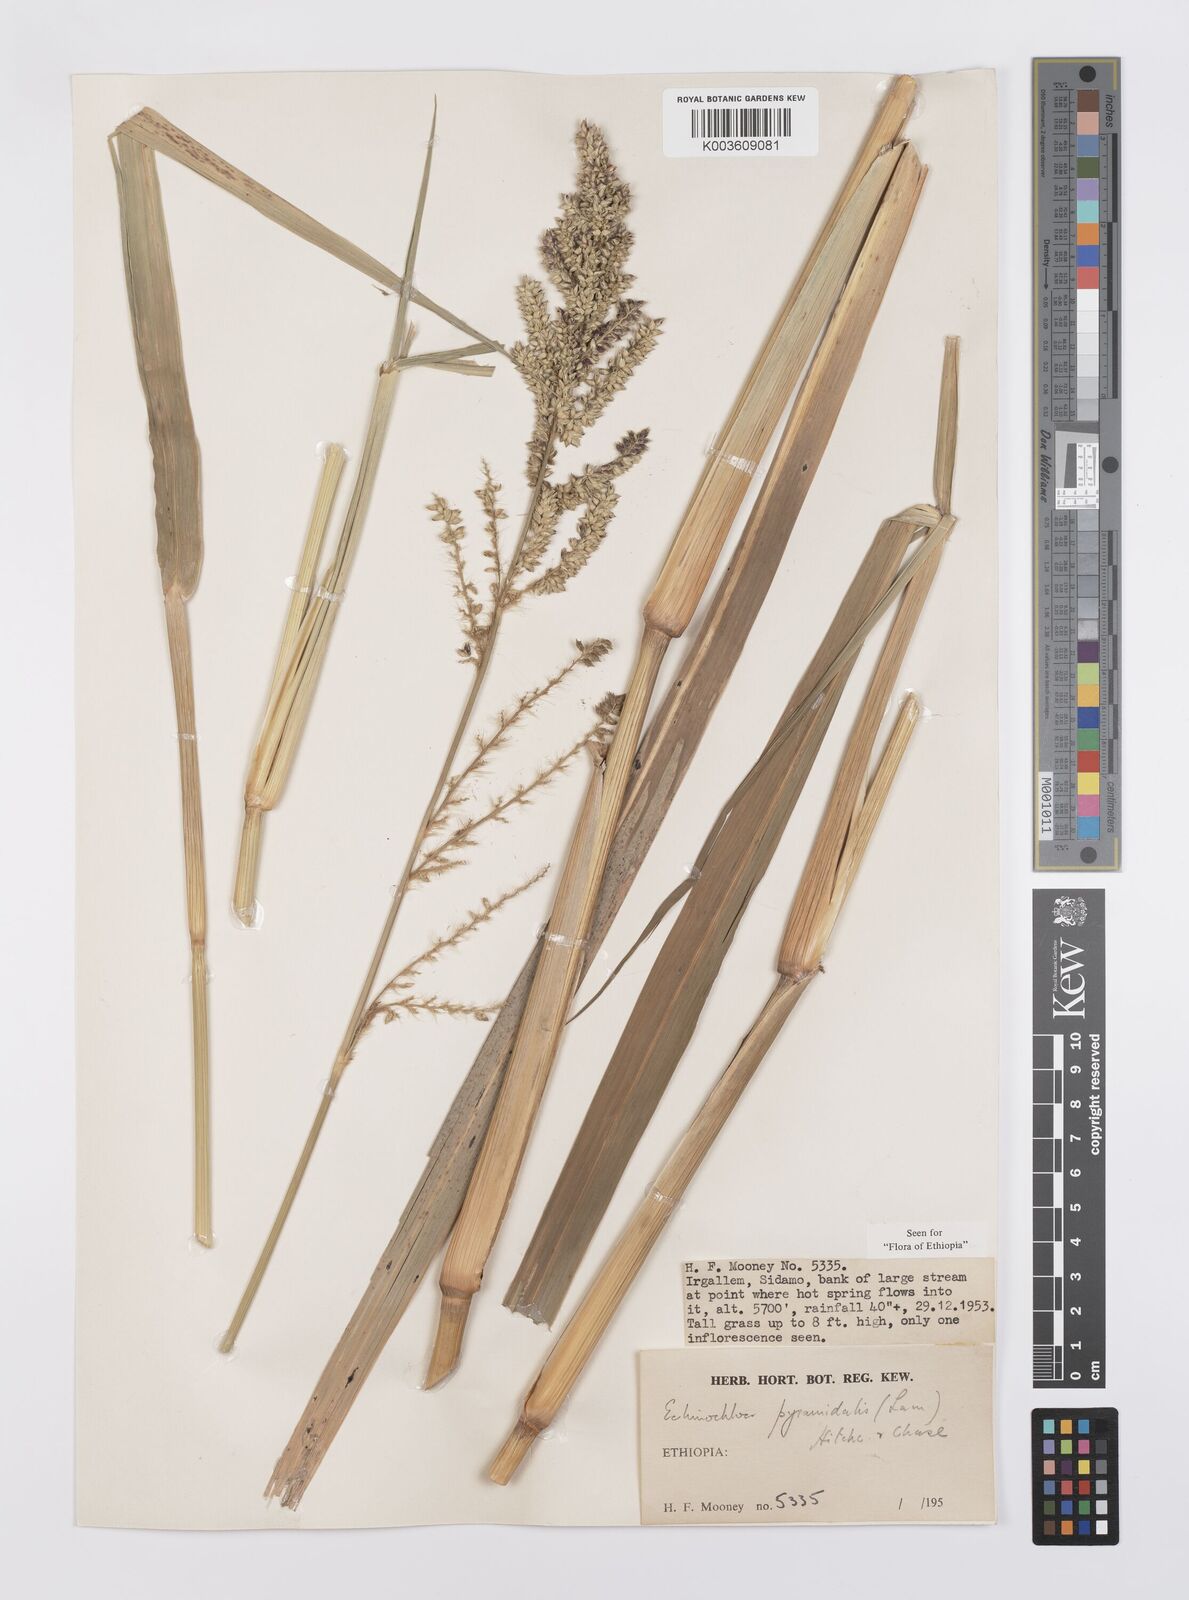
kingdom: Plantae
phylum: Tracheophyta
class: Liliopsida
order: Poales
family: Poaceae
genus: Echinochloa
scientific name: Echinochloa pyramidalis
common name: Antelope grass
